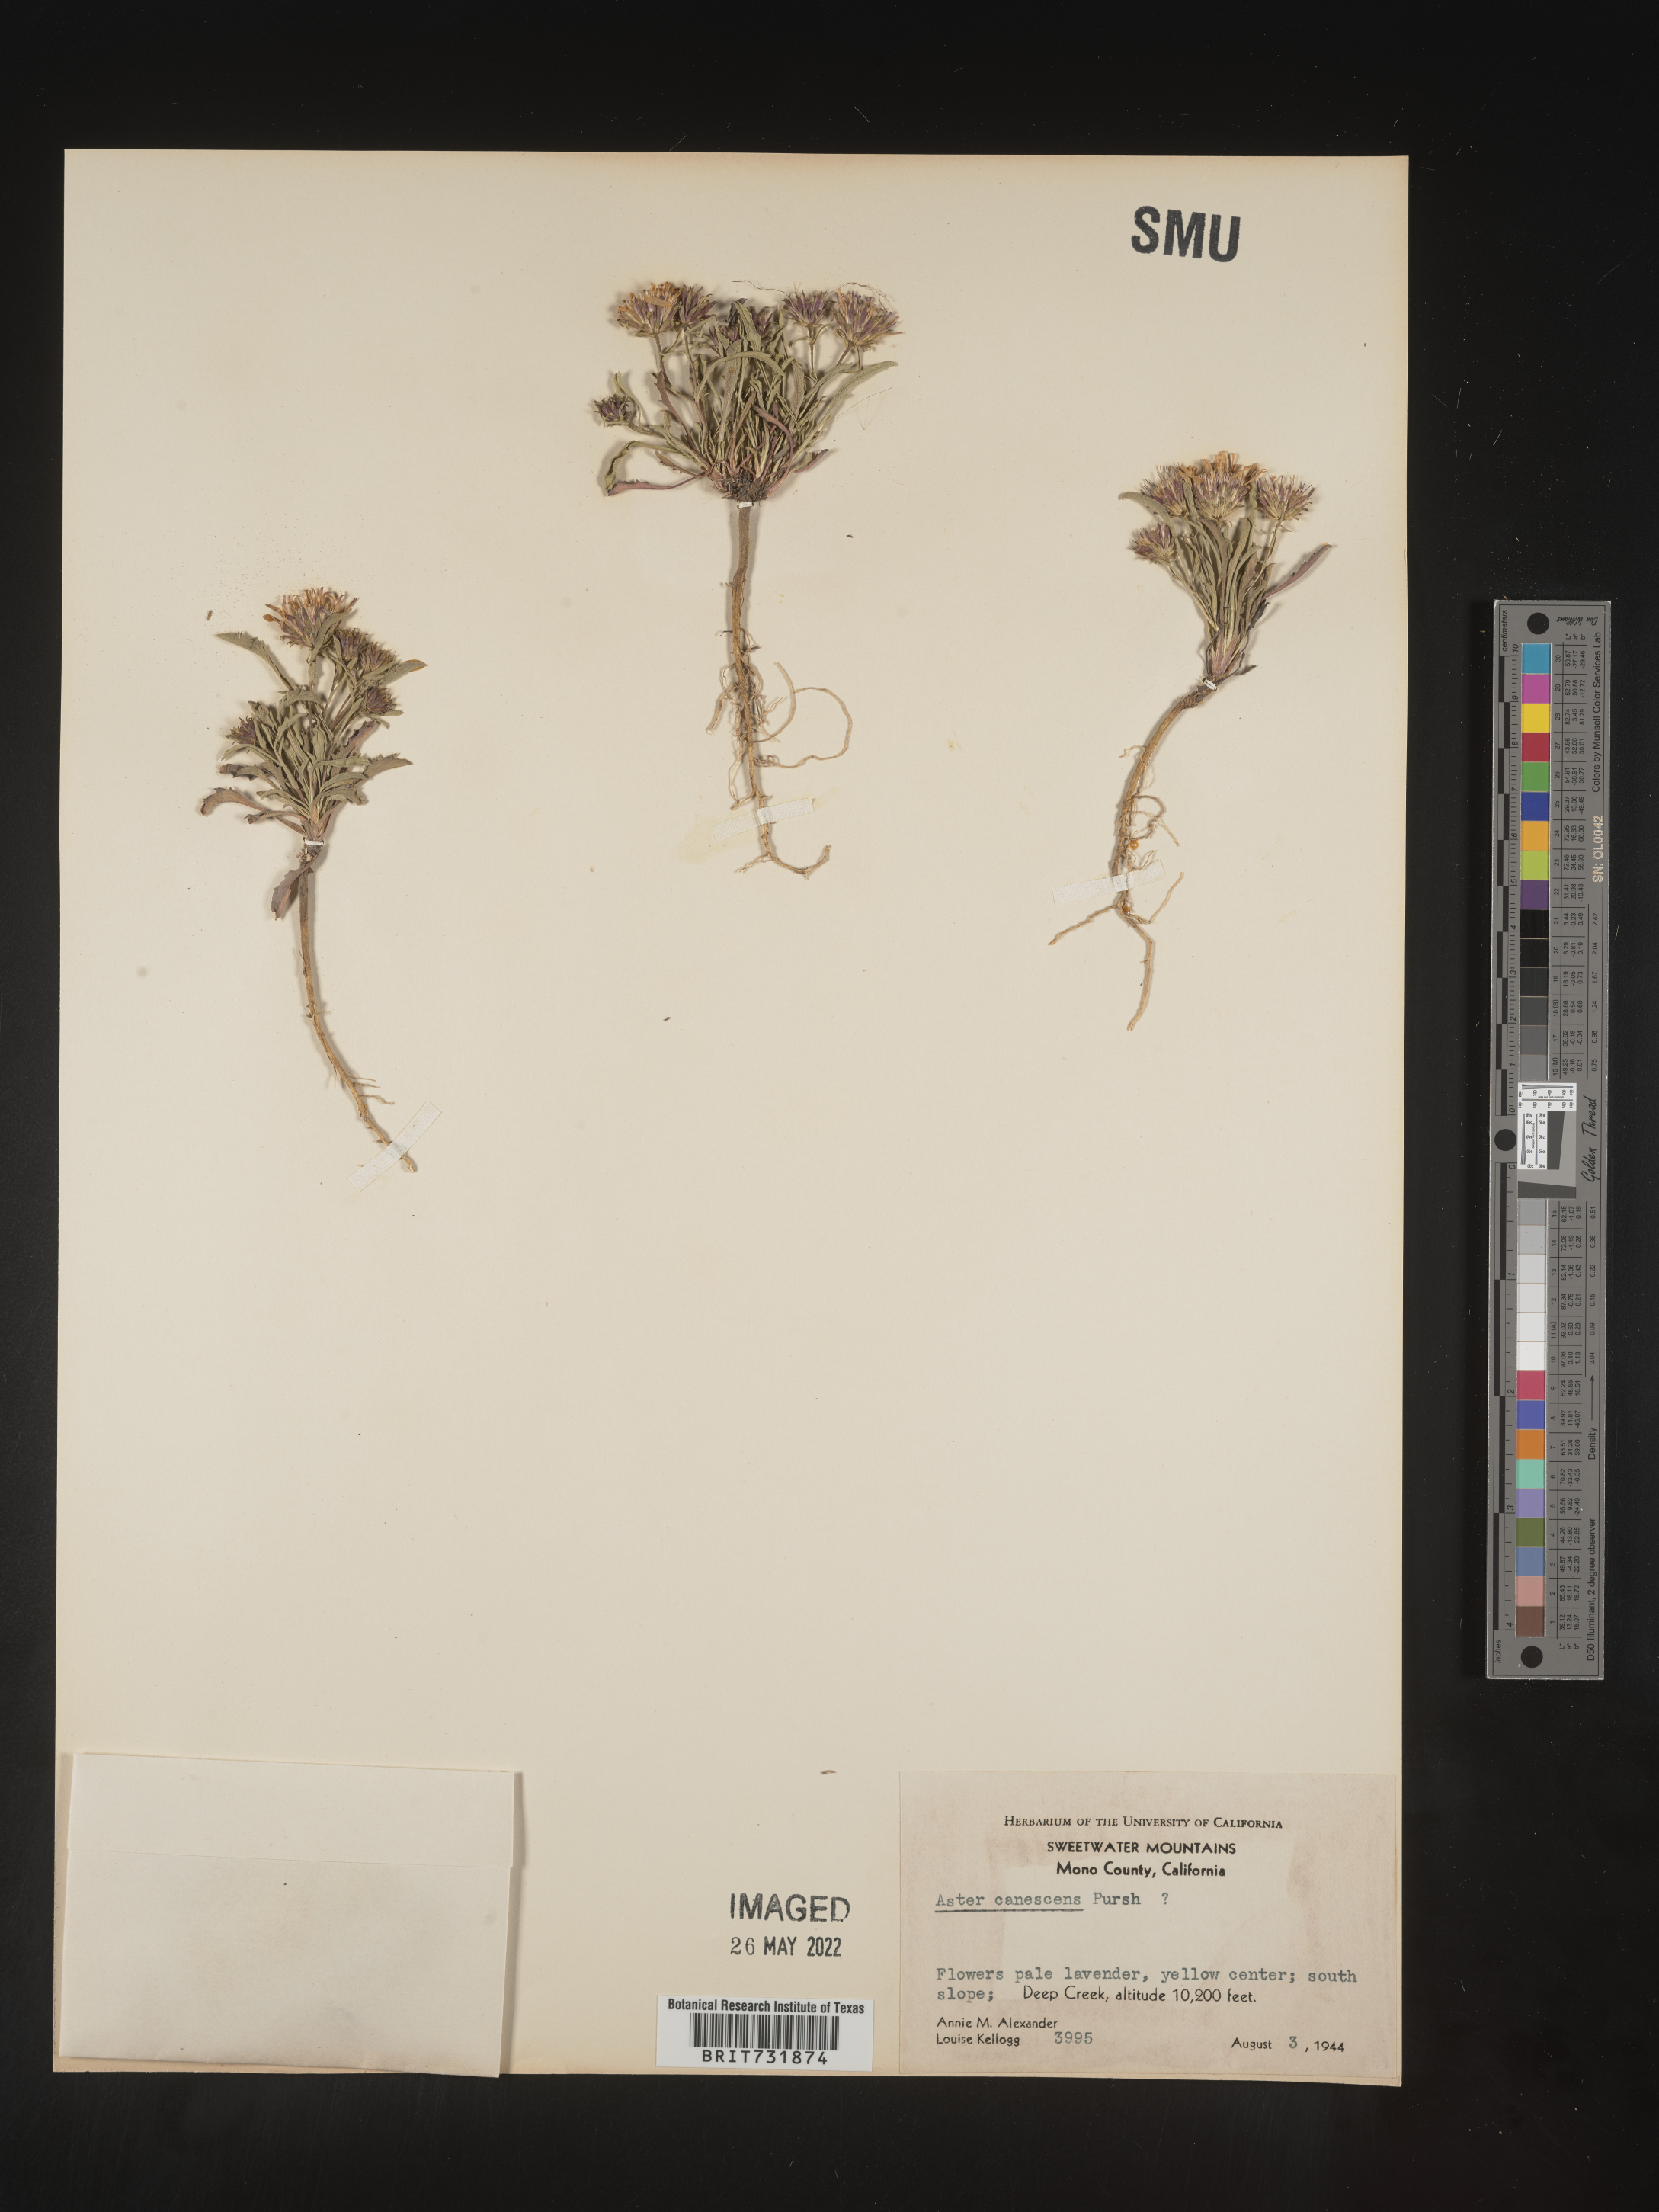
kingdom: Plantae
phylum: Tracheophyta
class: Magnoliopsida
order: Asterales
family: Asteraceae
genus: Dieteria
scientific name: Dieteria canescens
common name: Hoary-aster
